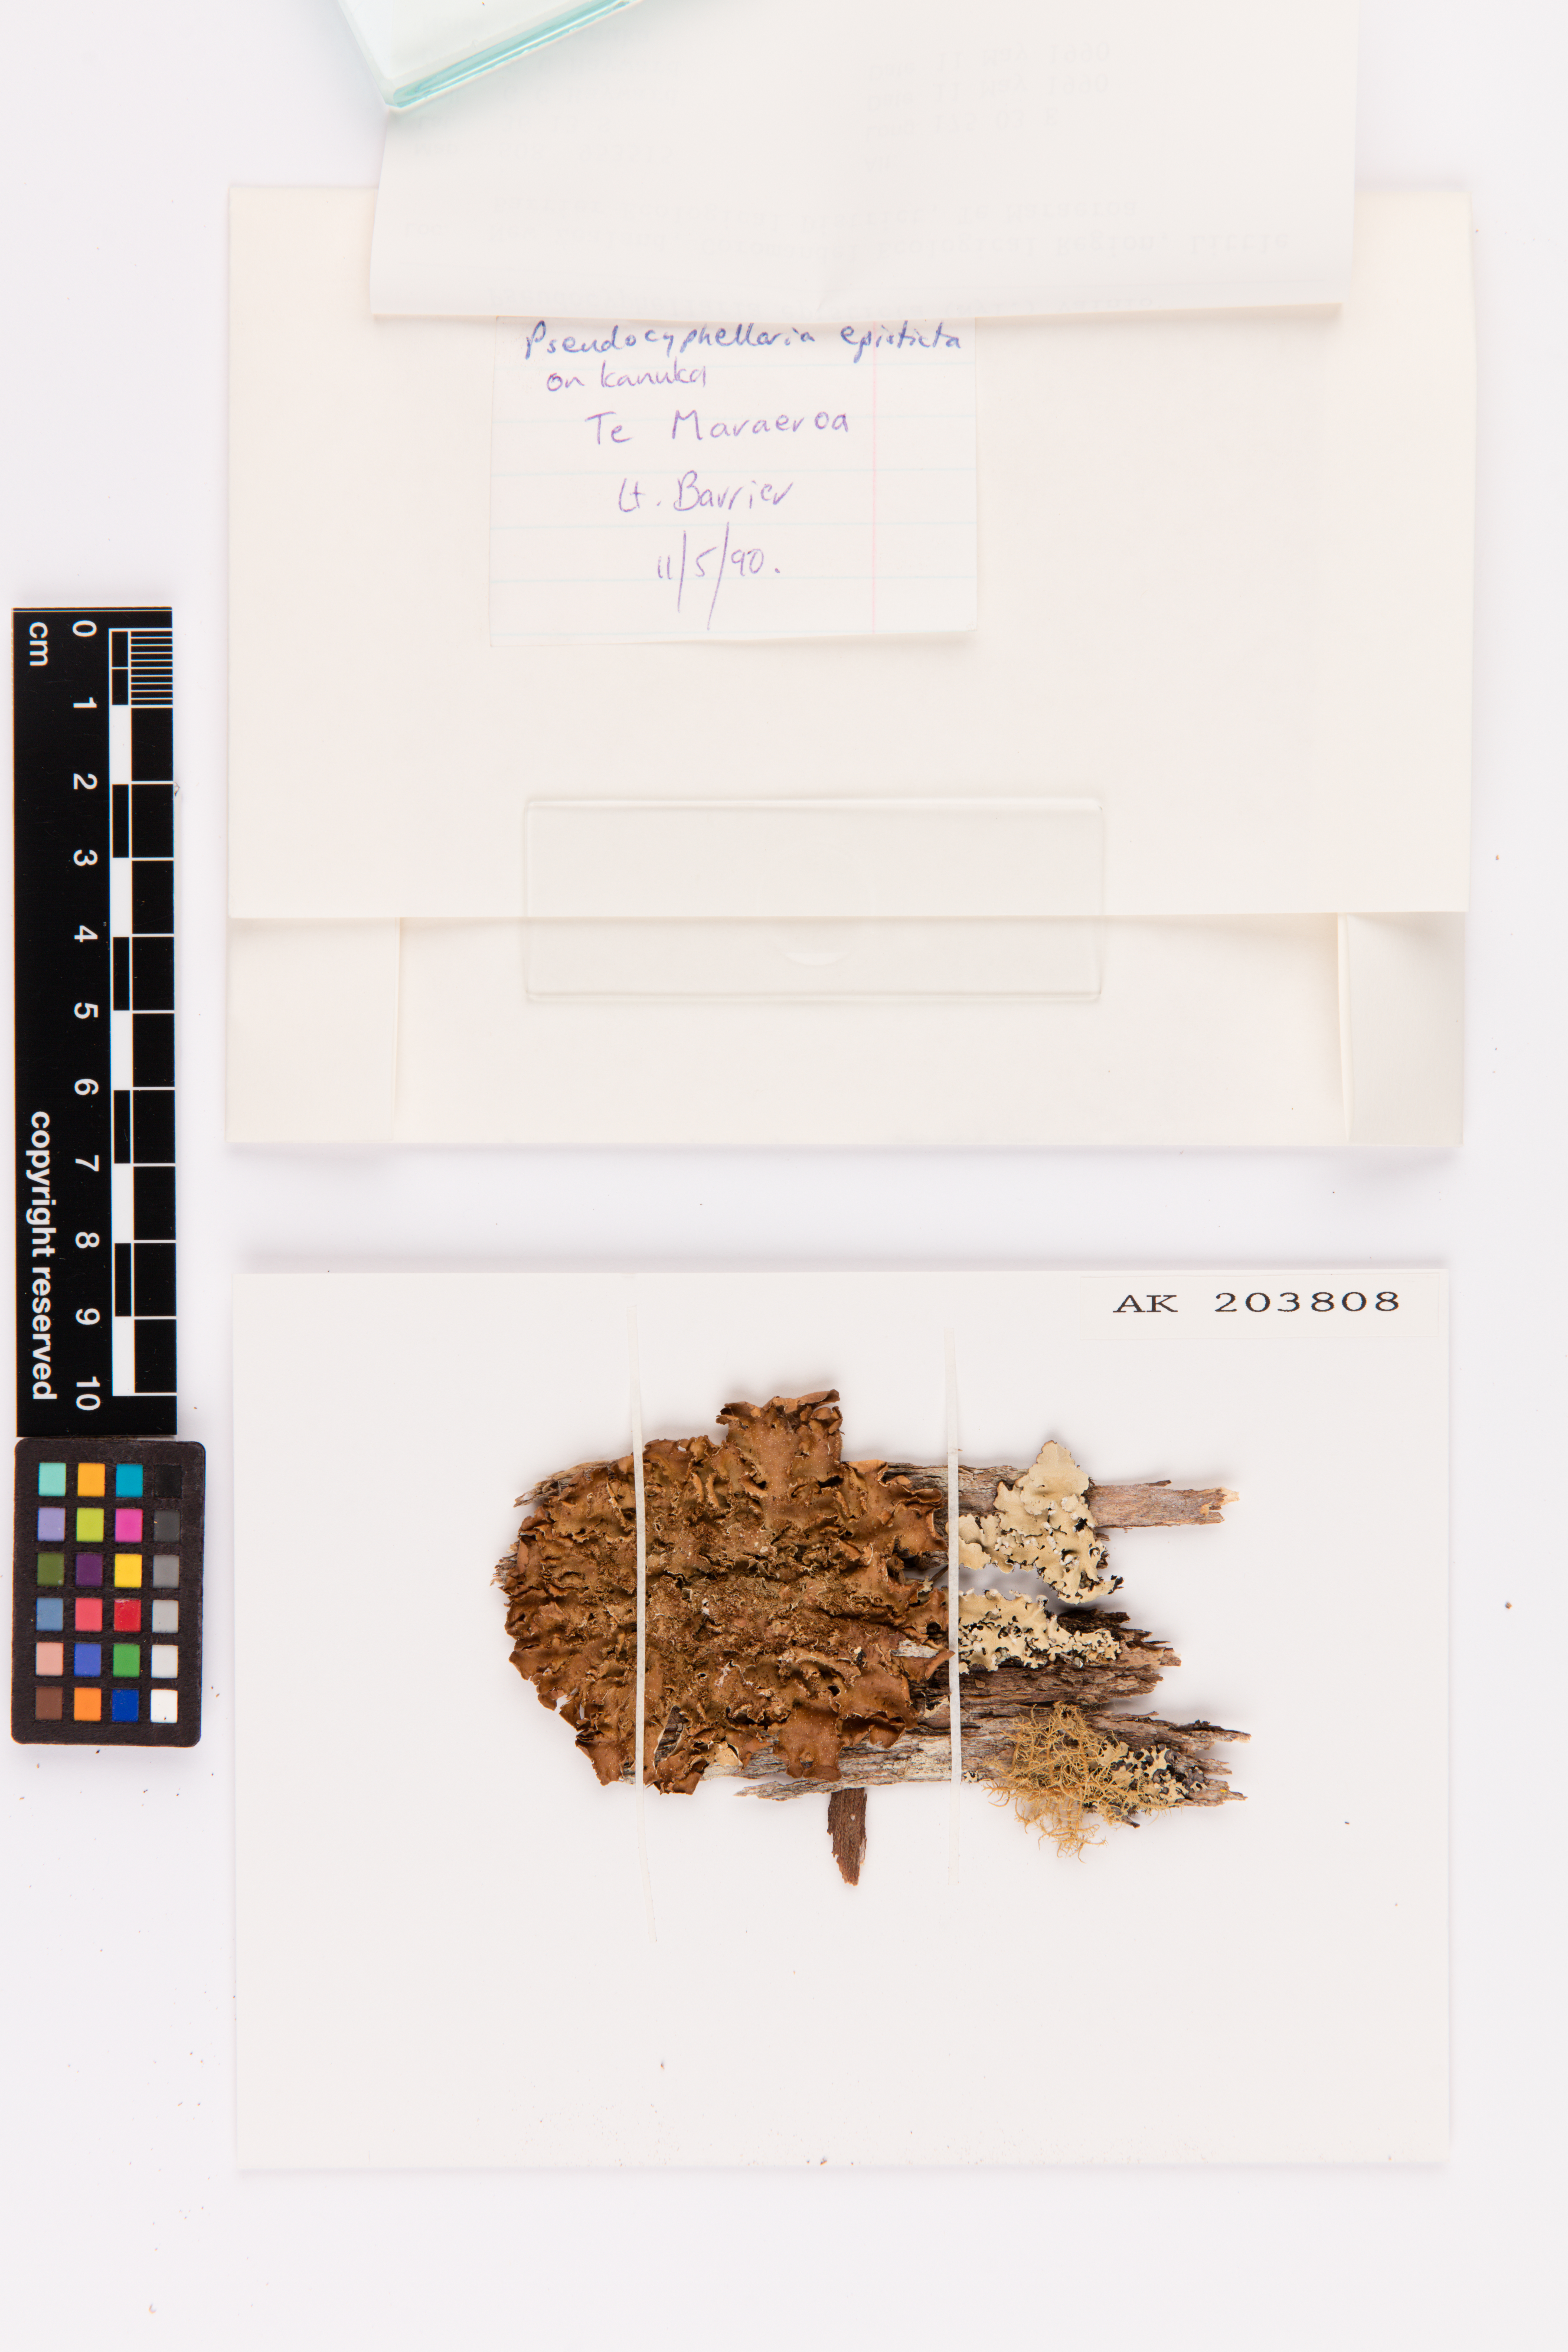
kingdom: Fungi
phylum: Ascomycota
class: Lecanoromycetes
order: Peltigerales
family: Lobariaceae
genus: Pseudocyphellaria
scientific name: Pseudocyphellaria episticta
